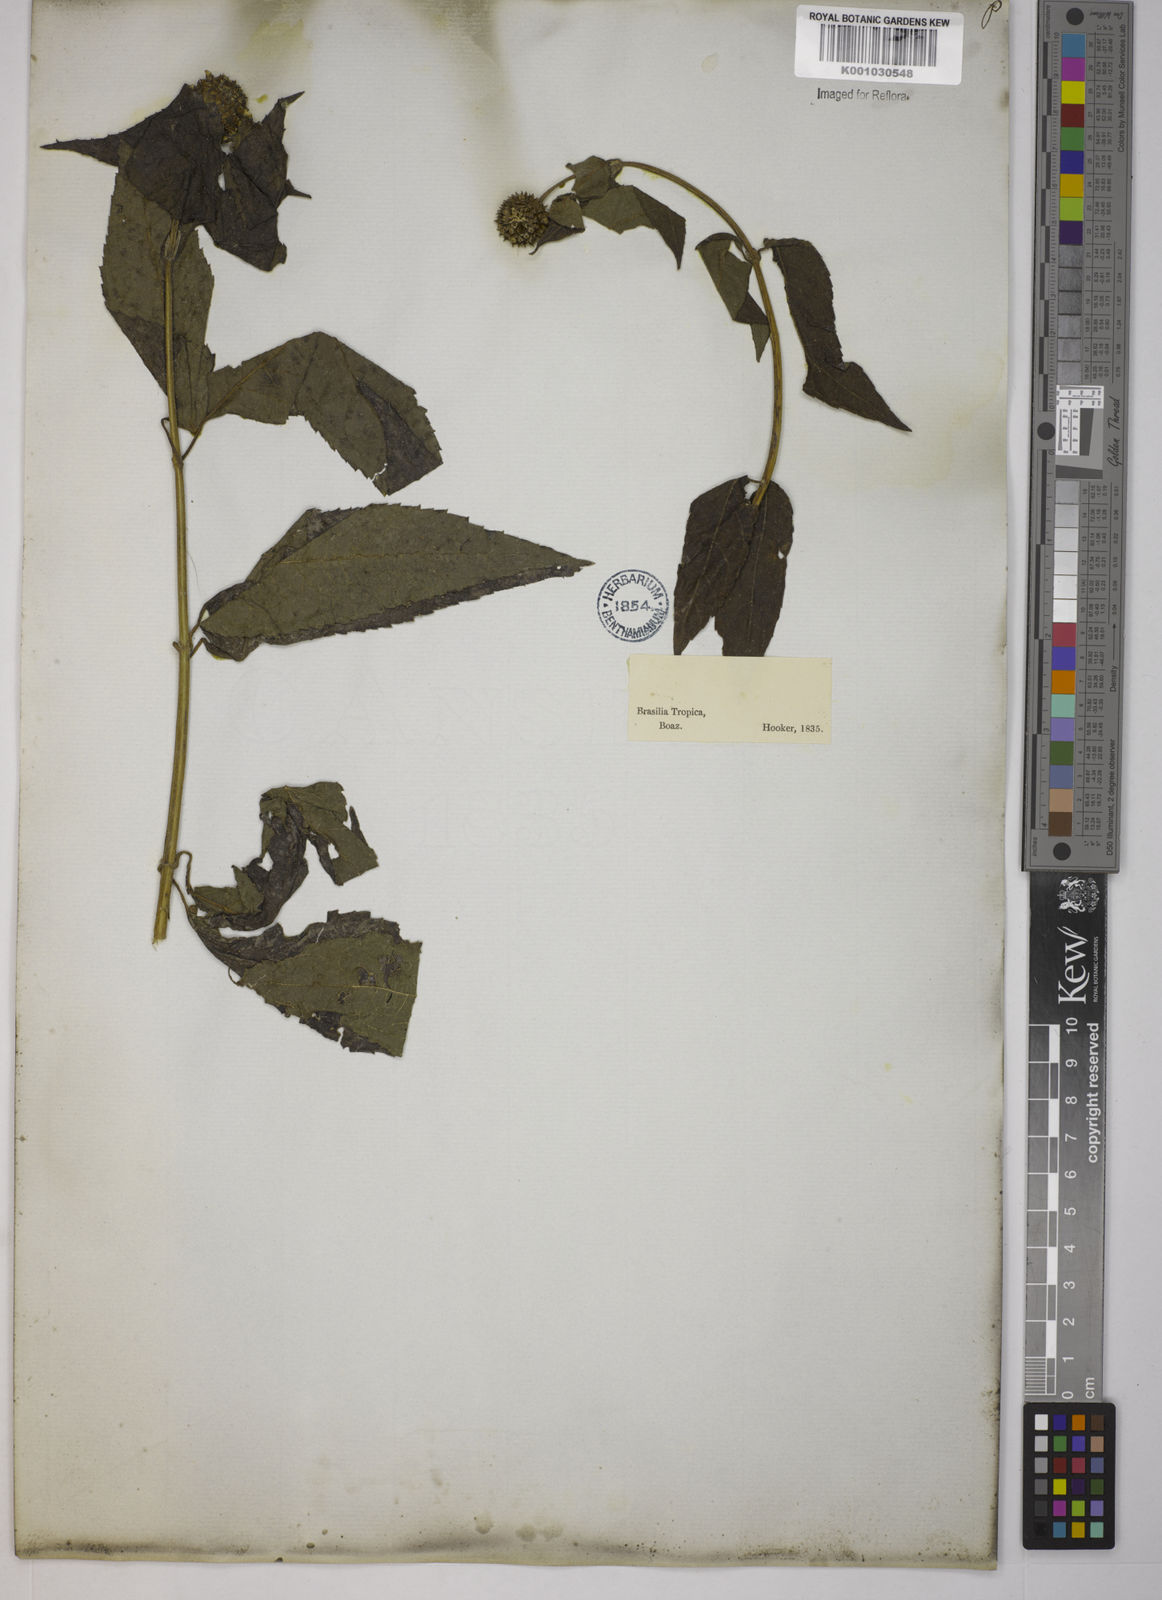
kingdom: Plantae
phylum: Tracheophyta
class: Magnoliopsida
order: Asterales
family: Asteraceae
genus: Tilesia
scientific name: Tilesia baccata
